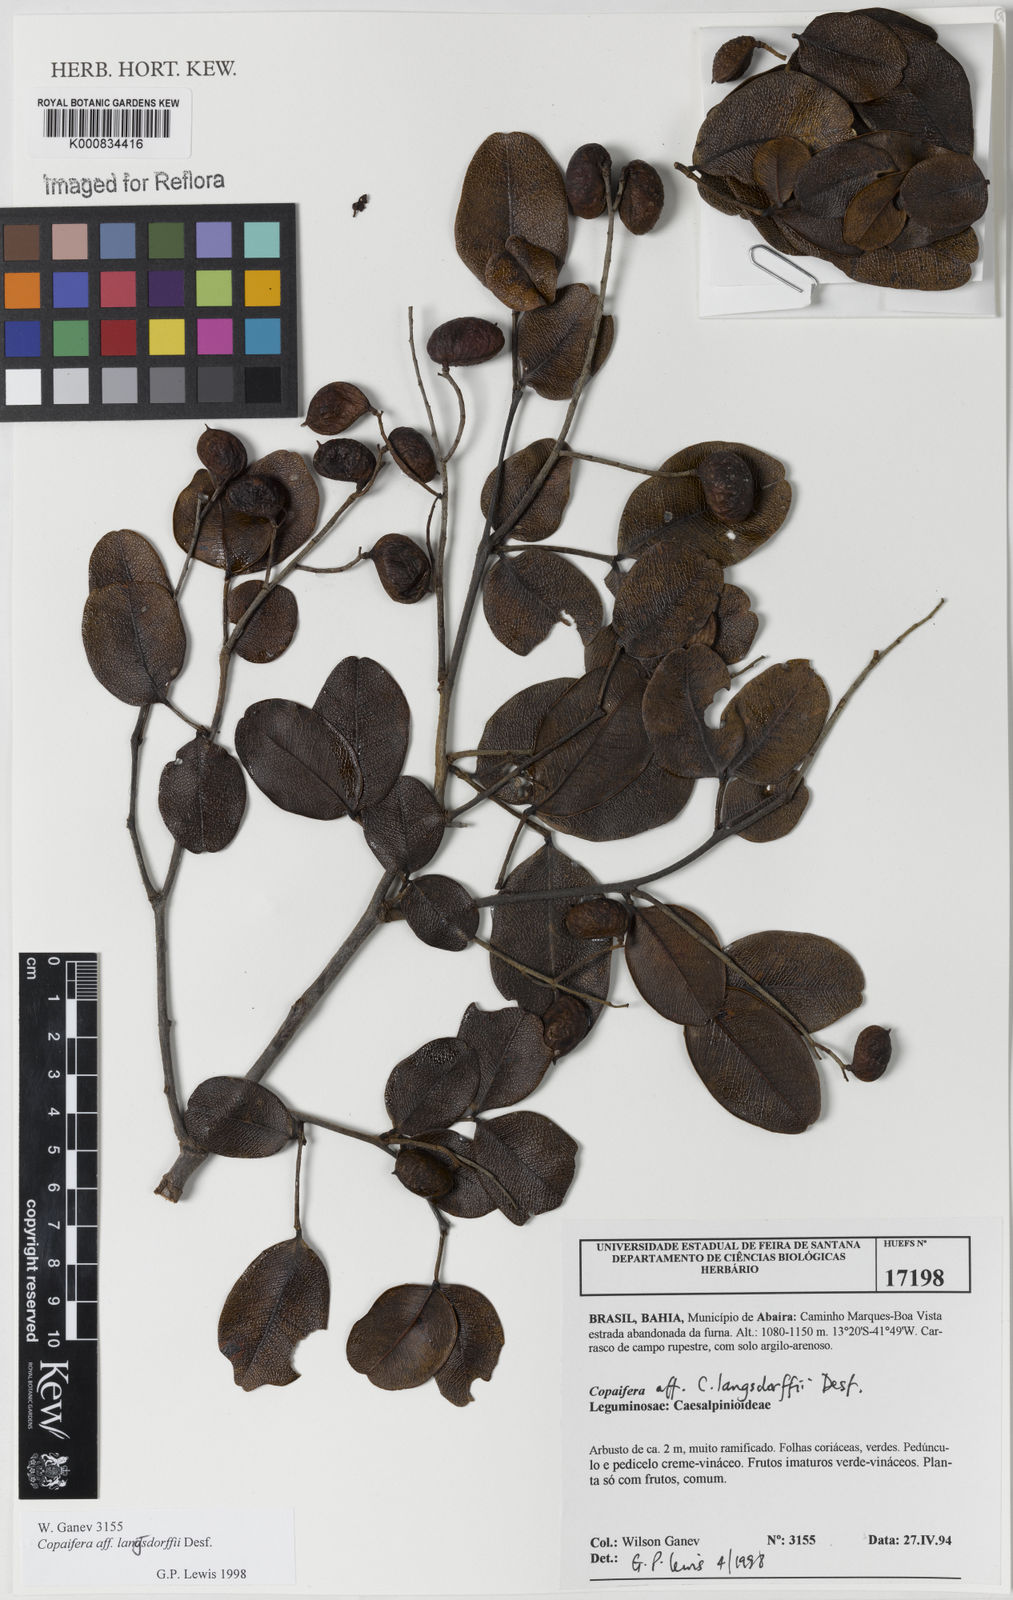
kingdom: Plantae
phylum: Tracheophyta
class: Magnoliopsida
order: Fabales
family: Fabaceae
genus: Copaifera
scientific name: Copaifera langsdorffii
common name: Brazilian diesel tree
